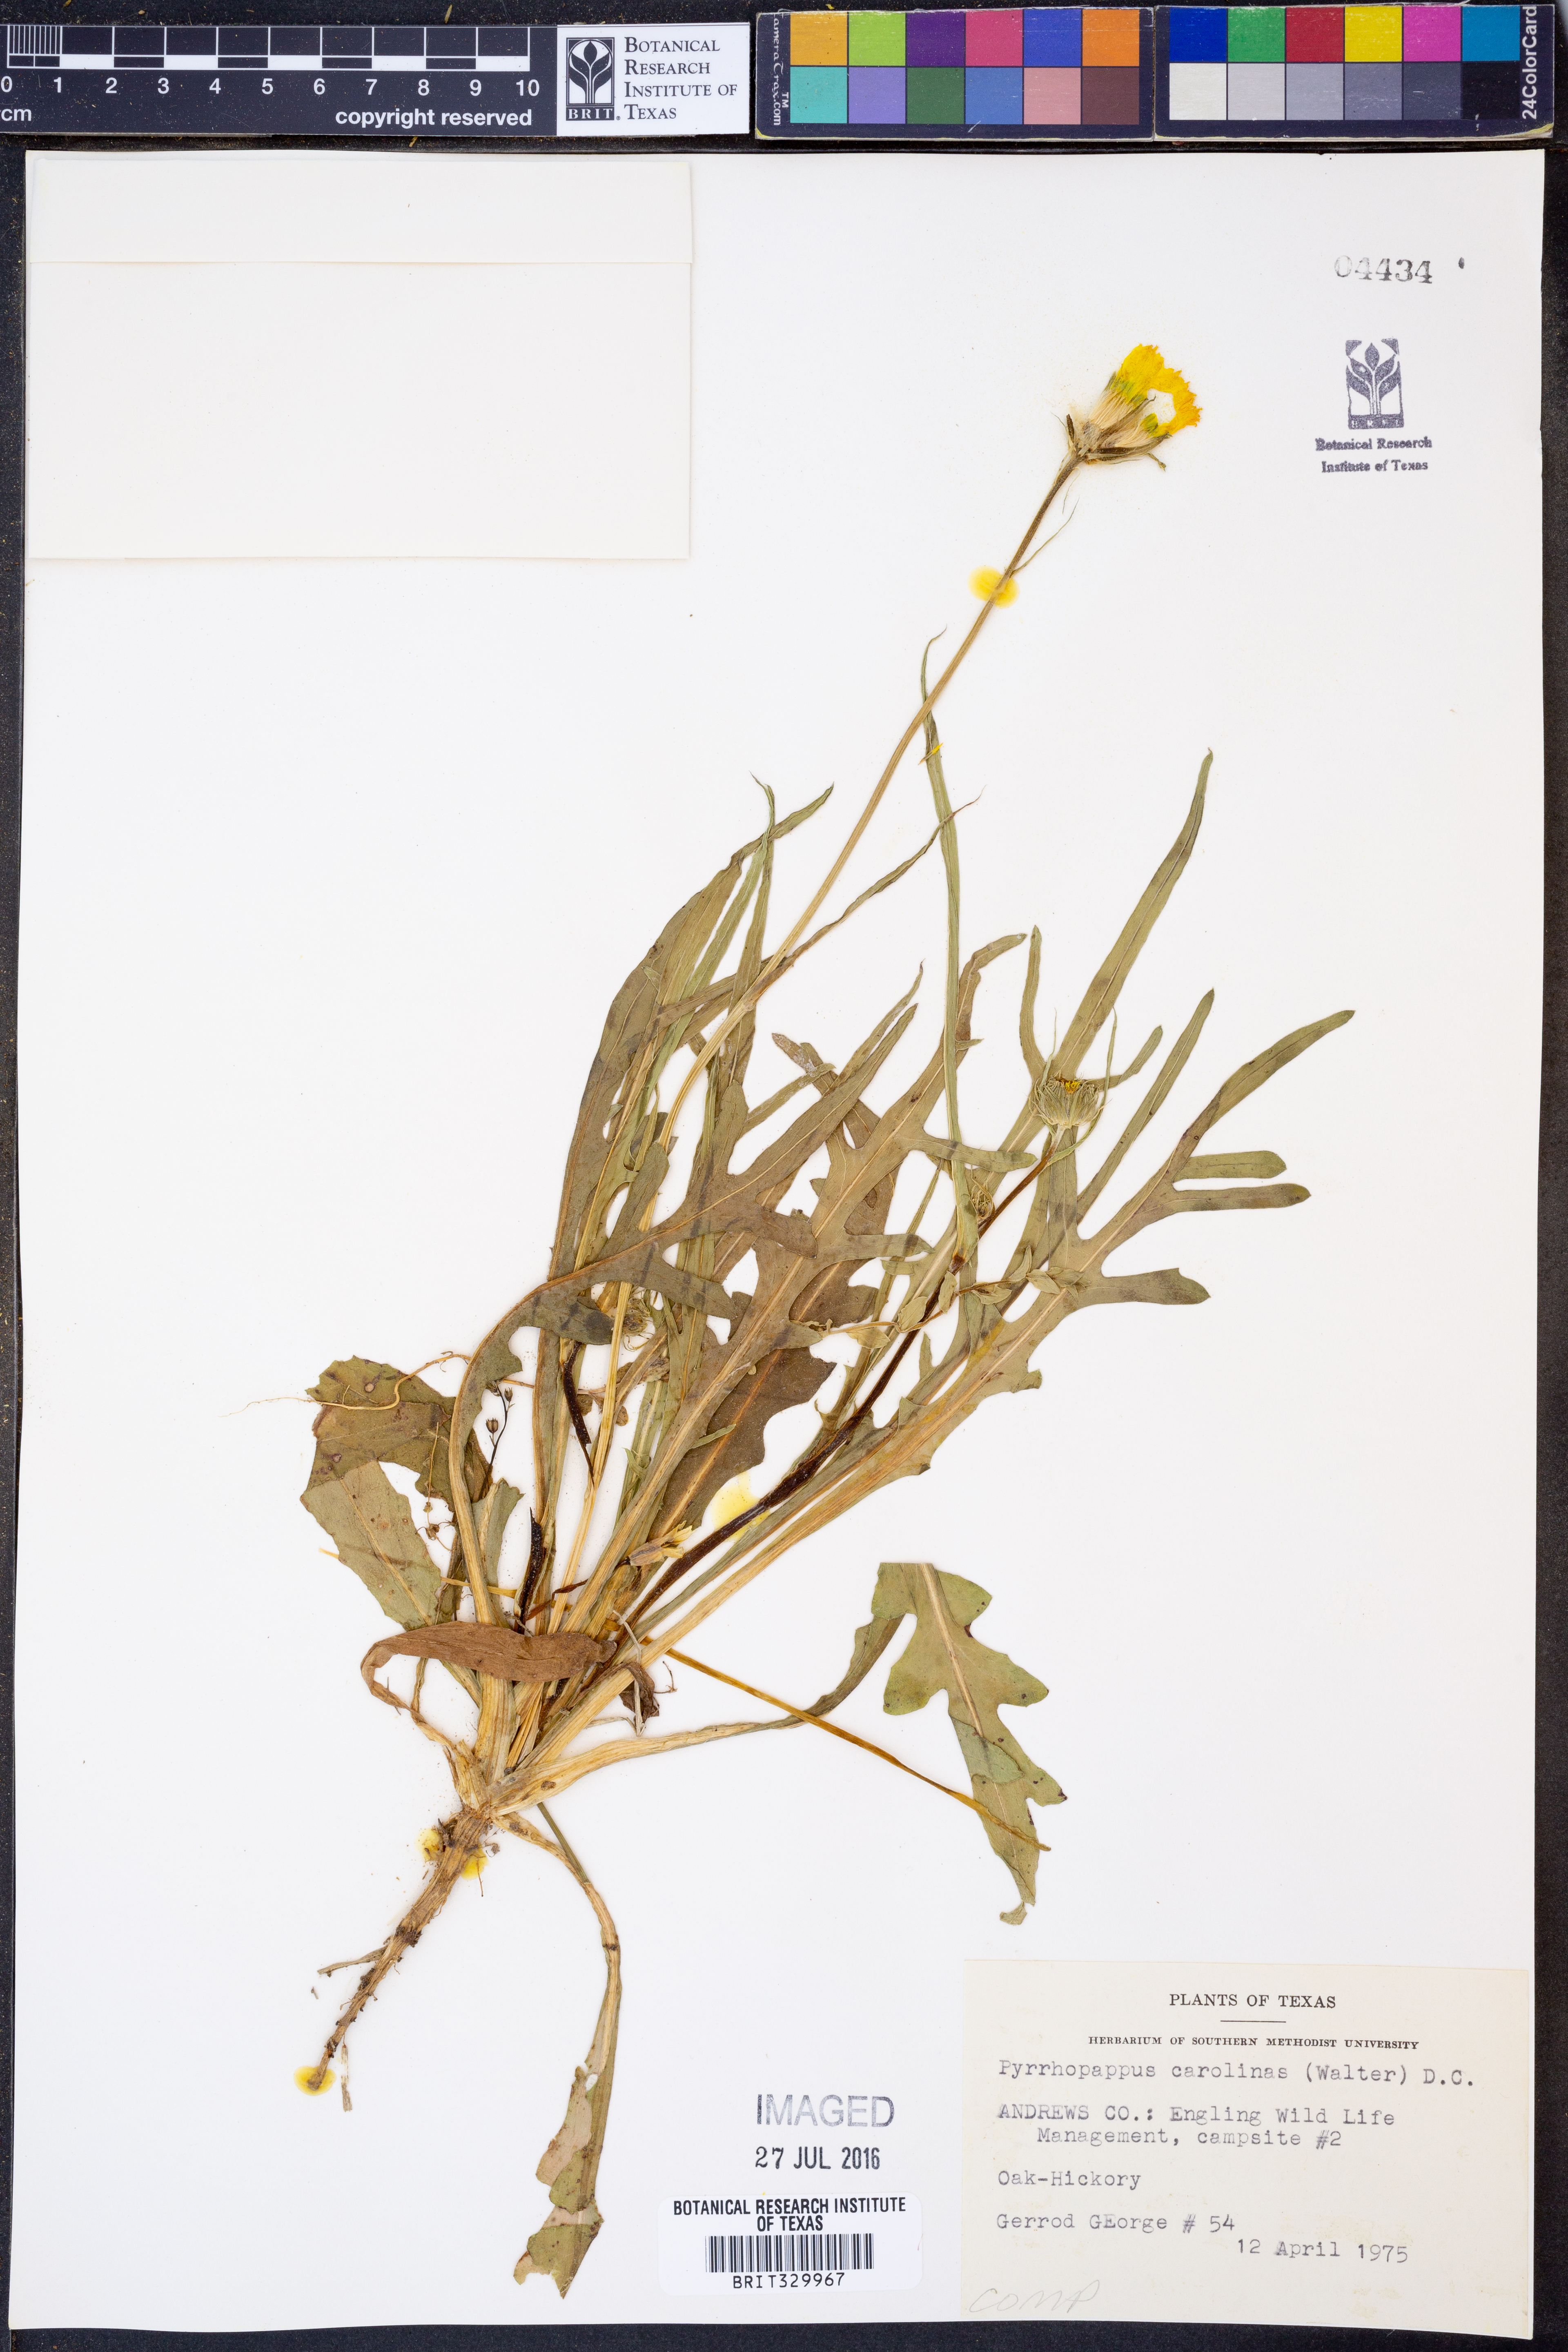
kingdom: Plantae
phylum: Tracheophyta
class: Magnoliopsida
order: Asterales
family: Asteraceae
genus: Pyrrhopappus
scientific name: Pyrrhopappus carolinianus
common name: Carolina desert-chicory
